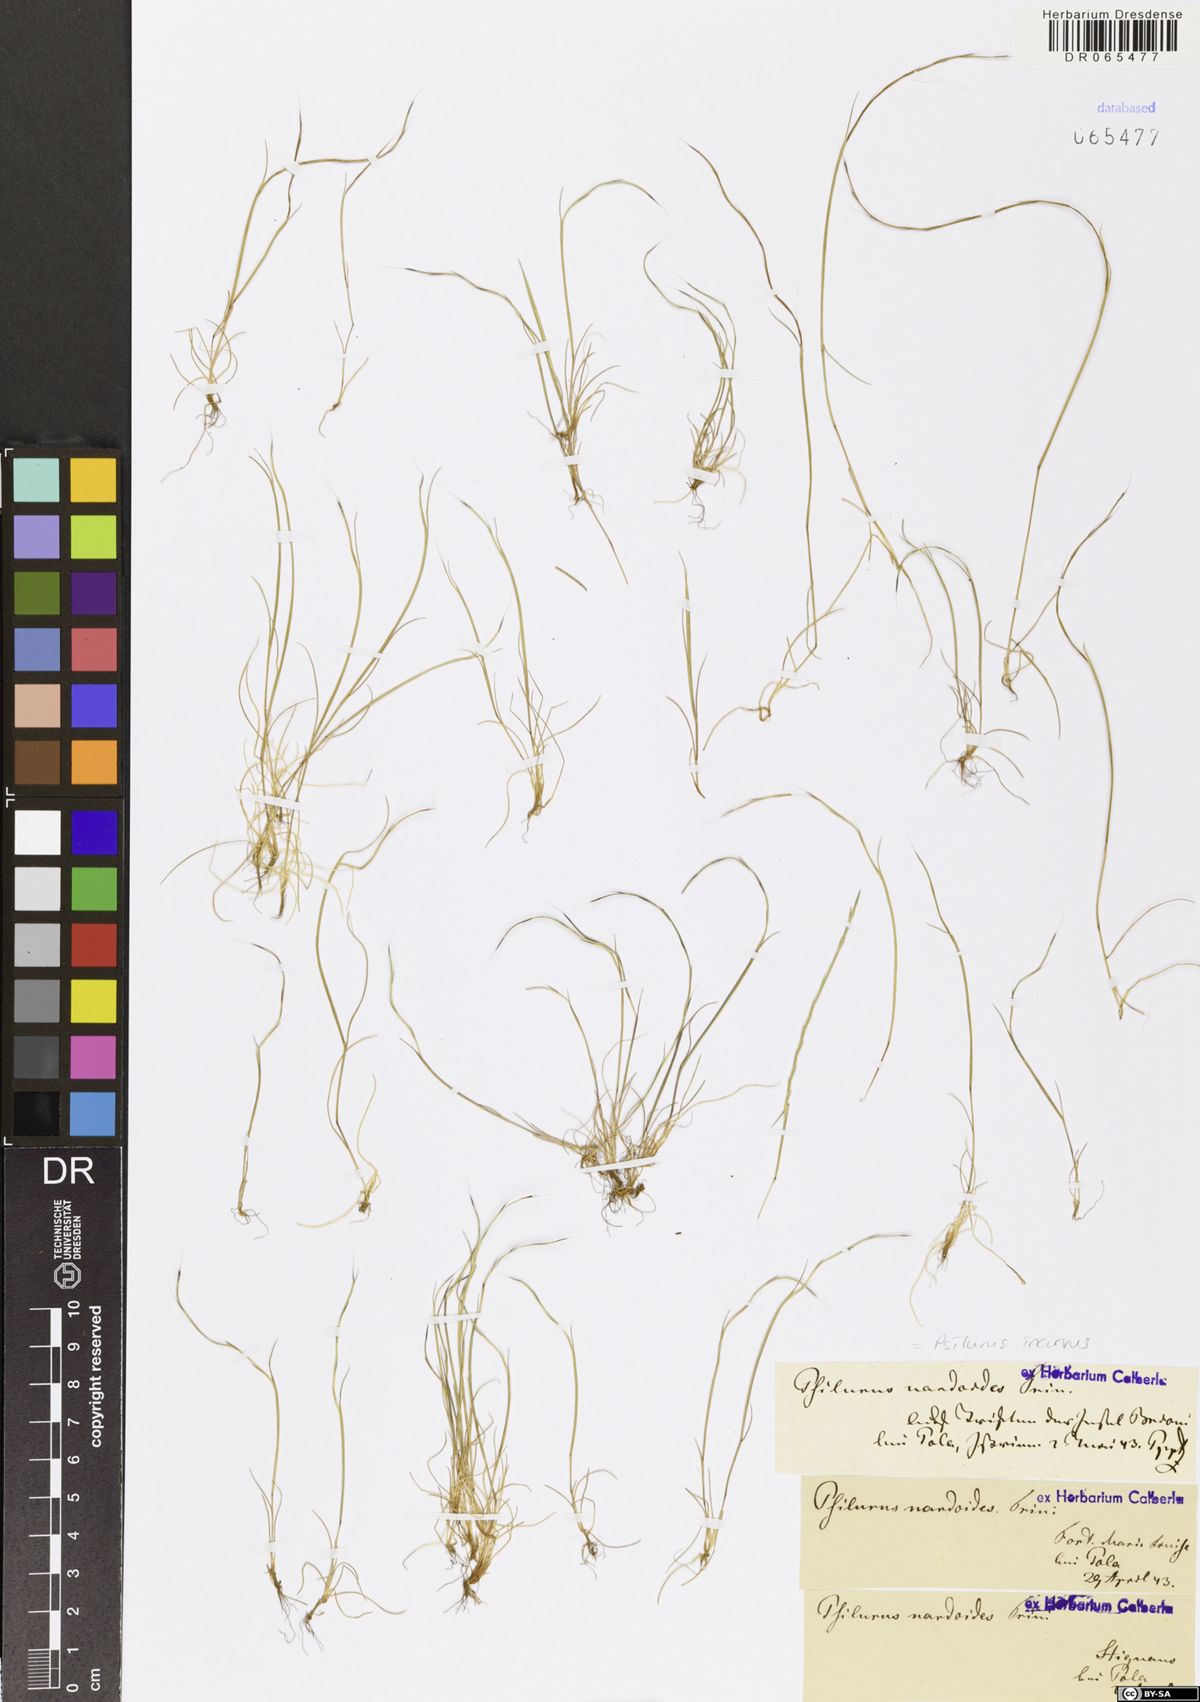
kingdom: Plantae
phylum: Tracheophyta
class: Liliopsida
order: Poales
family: Poaceae
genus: Festuca
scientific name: Festuca incurva
